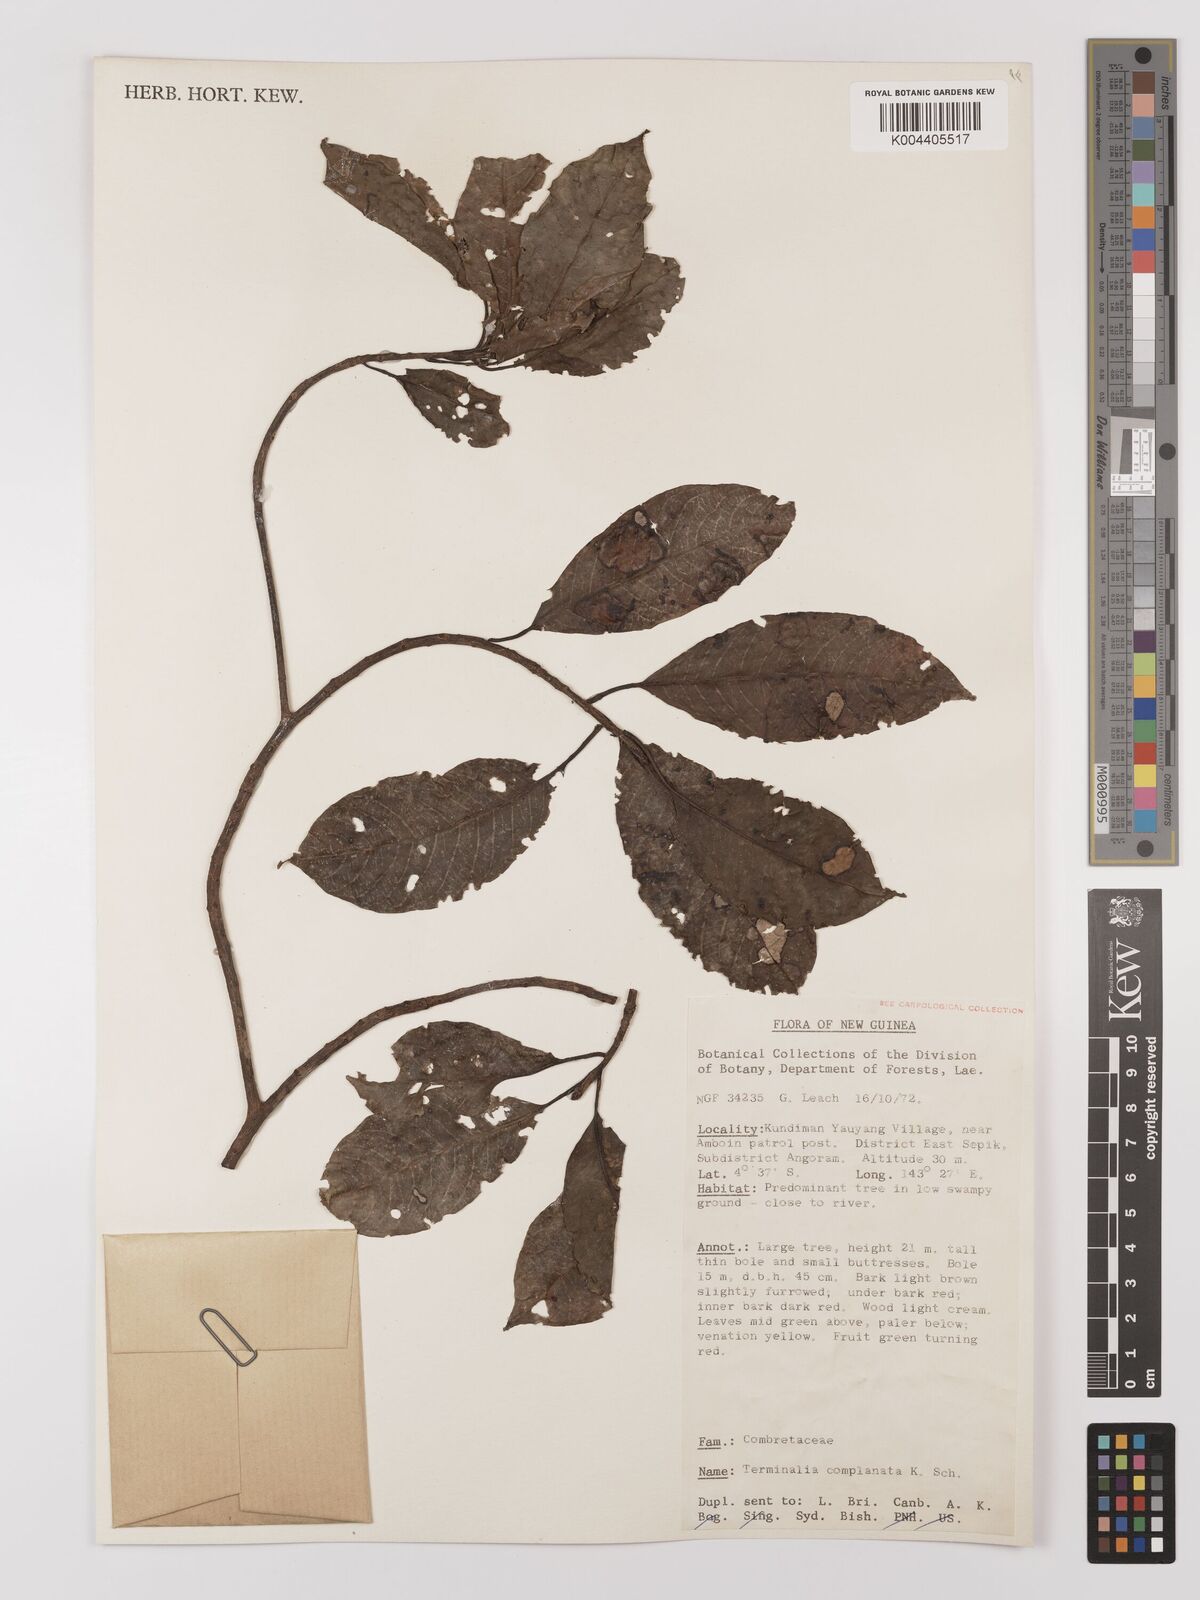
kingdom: Plantae
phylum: Tracheophyta
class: Magnoliopsida
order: Myrtales
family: Combretaceae
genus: Terminalia
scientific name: Terminalia complanata
